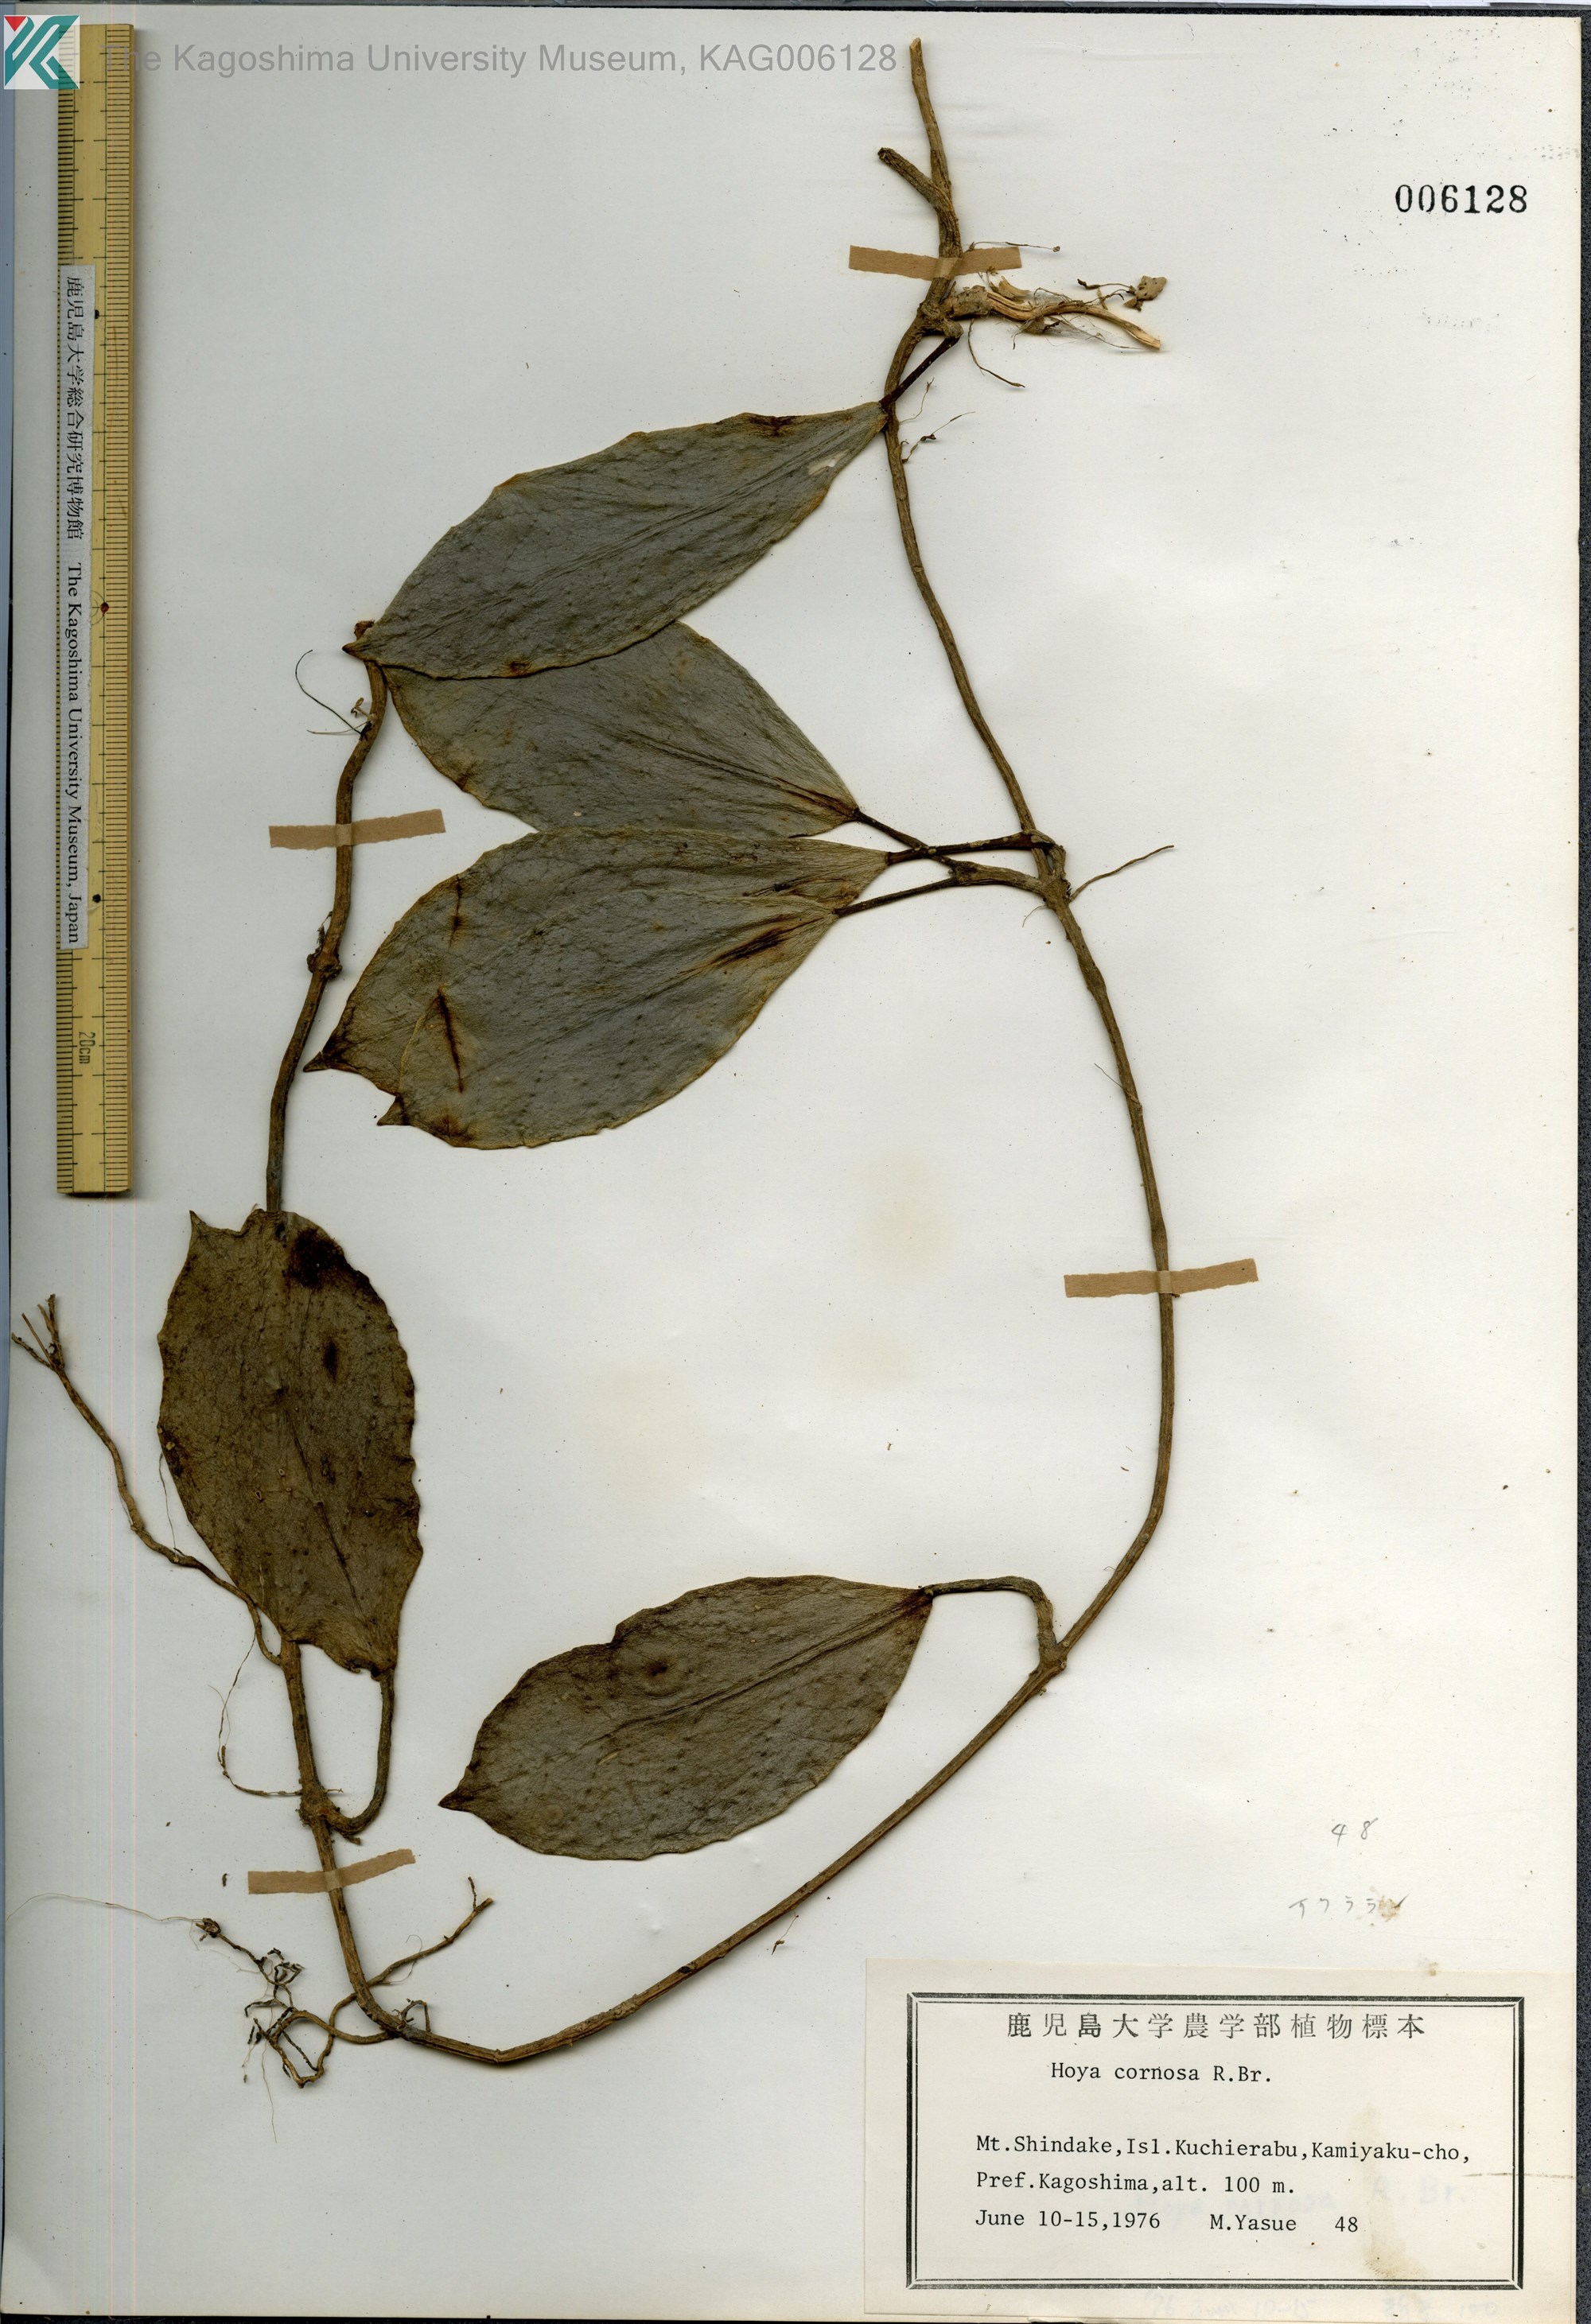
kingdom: Plantae
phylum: Tracheophyta
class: Magnoliopsida
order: Gentianales
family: Apocynaceae
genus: Hoya
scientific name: Hoya carnosa
